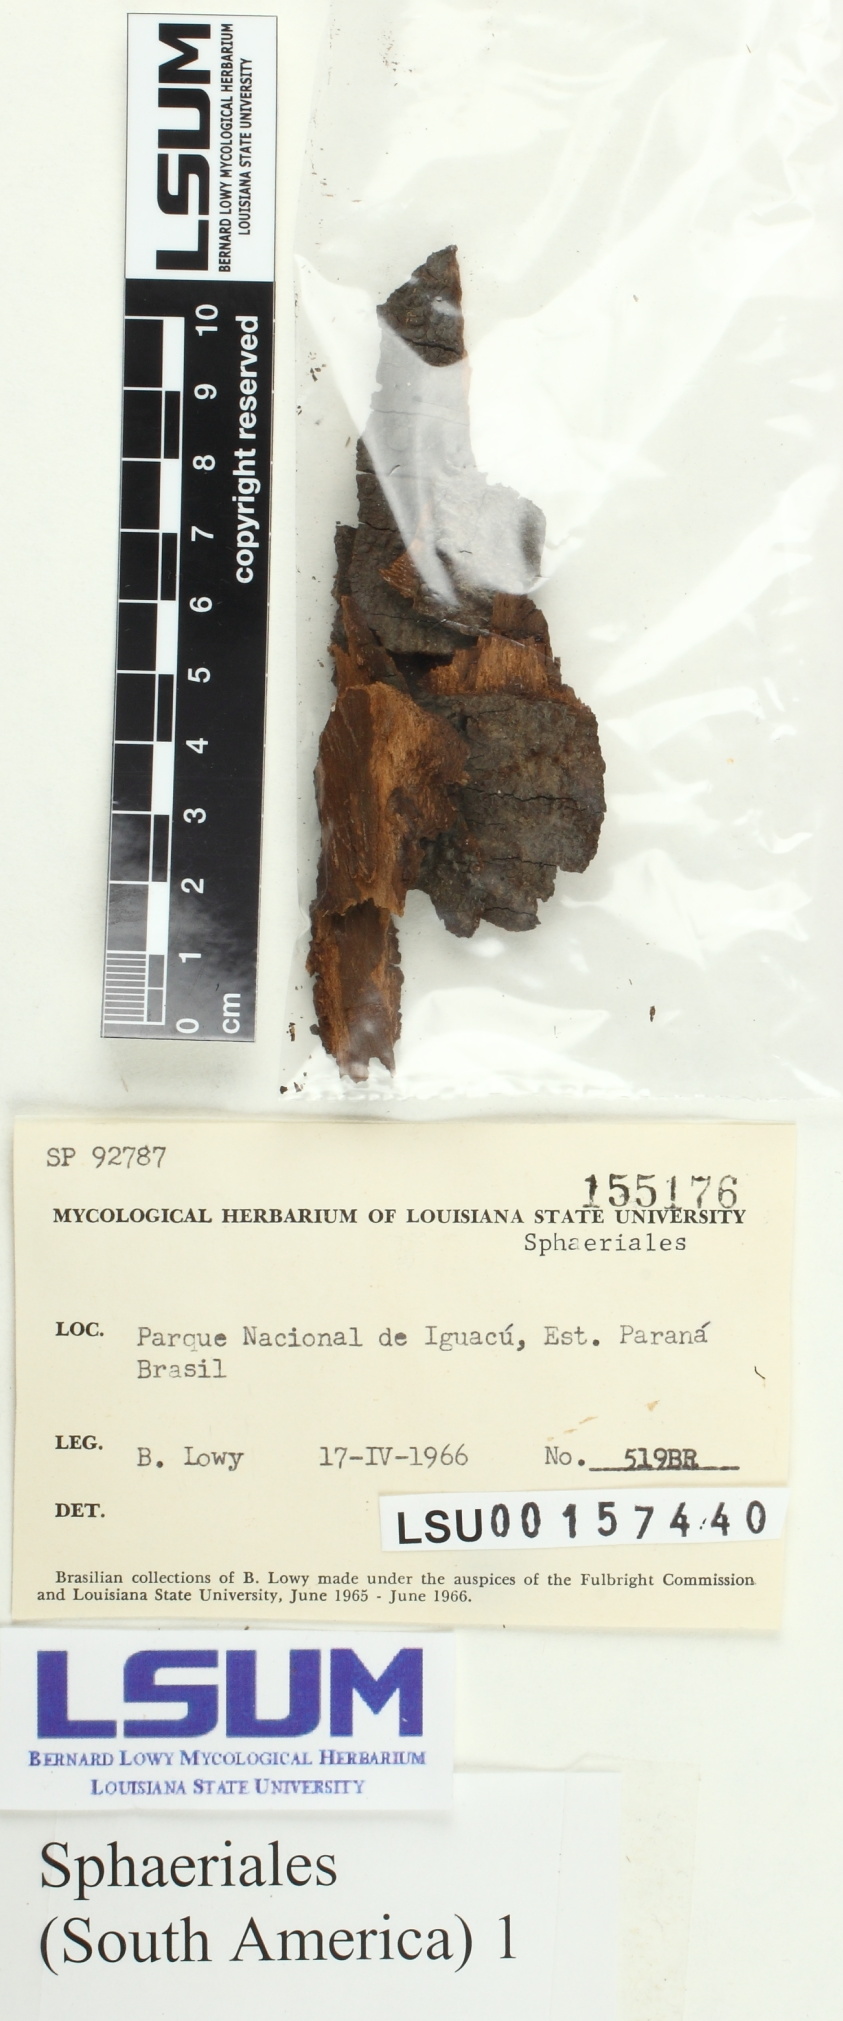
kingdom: Fungi
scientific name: Fungi
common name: Fungi
